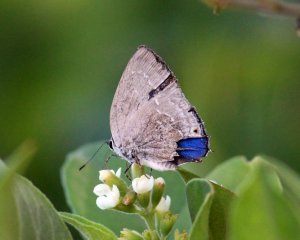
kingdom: Animalia
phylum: Arthropoda
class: Insecta
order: Lepidoptera
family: Lycaenidae
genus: Strephonota
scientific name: Strephonota tephraeus
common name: Pearly-Gray Hairstreak
